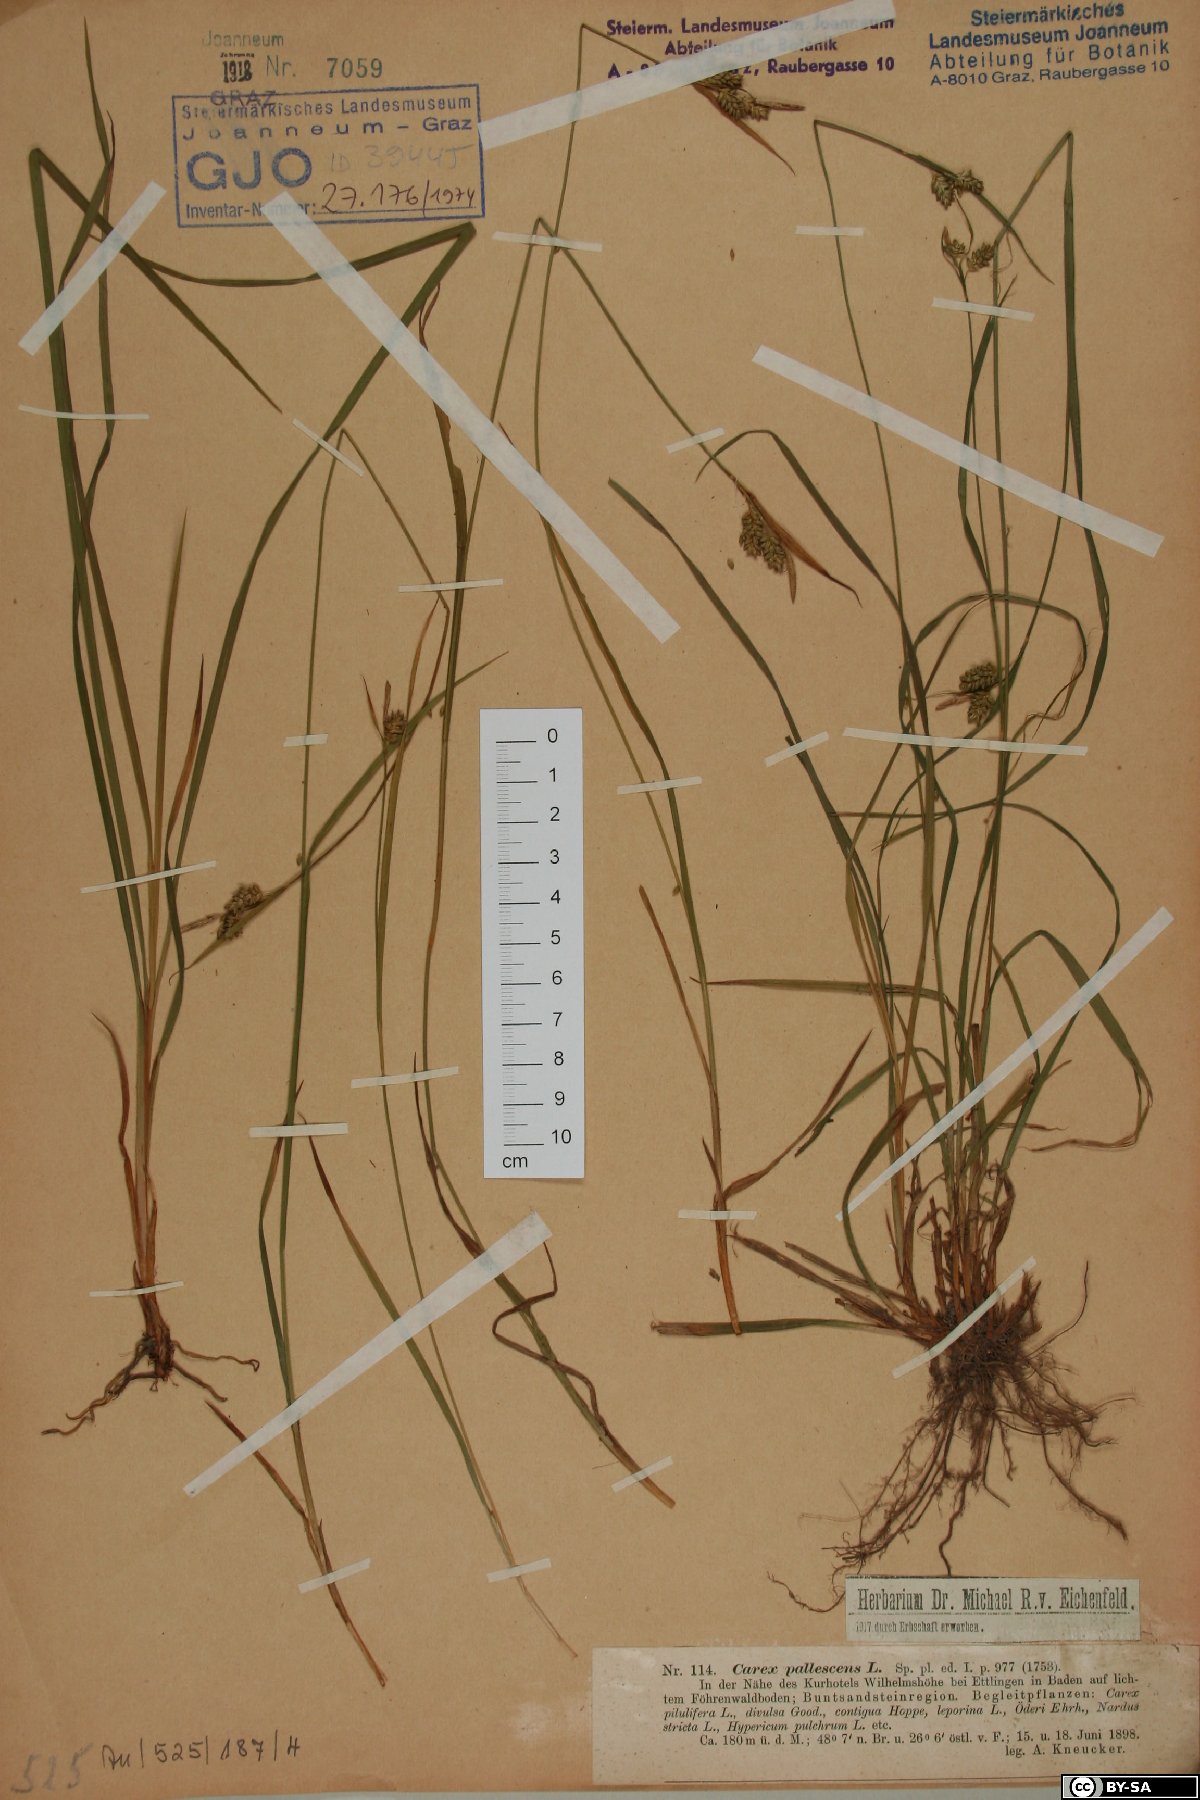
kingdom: Plantae
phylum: Tracheophyta
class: Liliopsida
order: Poales
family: Cyperaceae
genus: Carex
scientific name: Carex pallescens
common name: Pale sedge
